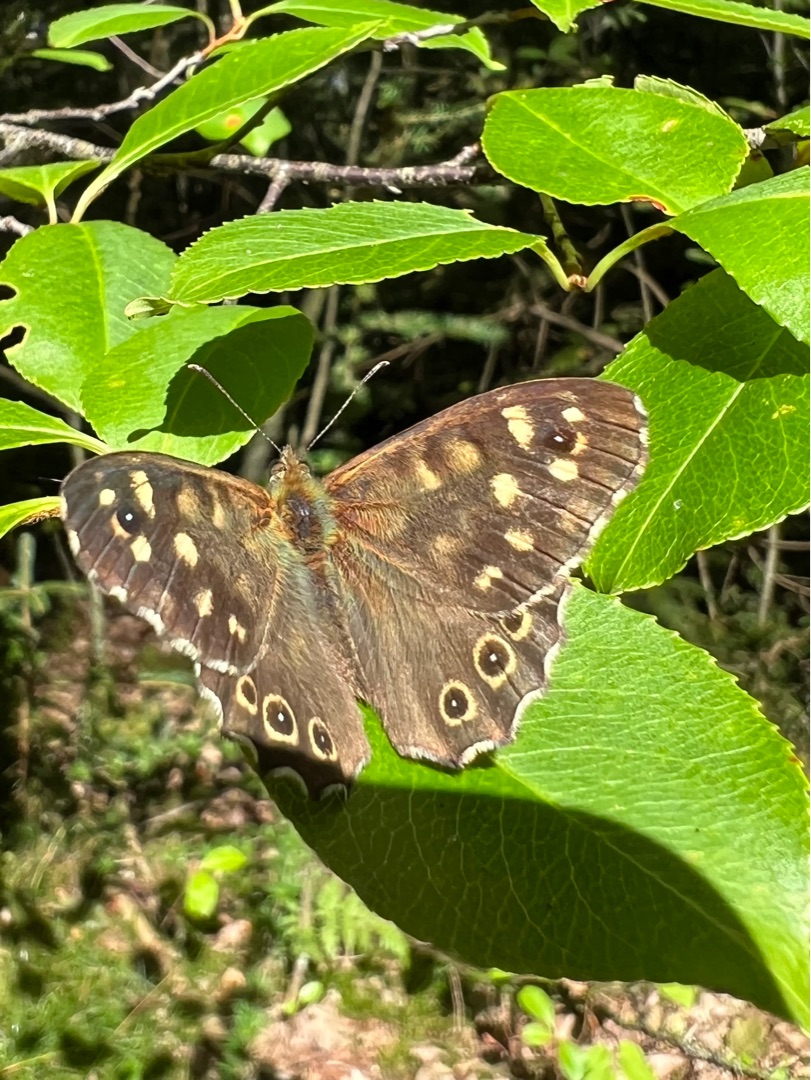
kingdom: Animalia
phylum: Arthropoda
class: Insecta
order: Lepidoptera
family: Nymphalidae
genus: Pararge
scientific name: Pararge aegeria
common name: Skovrandøje
